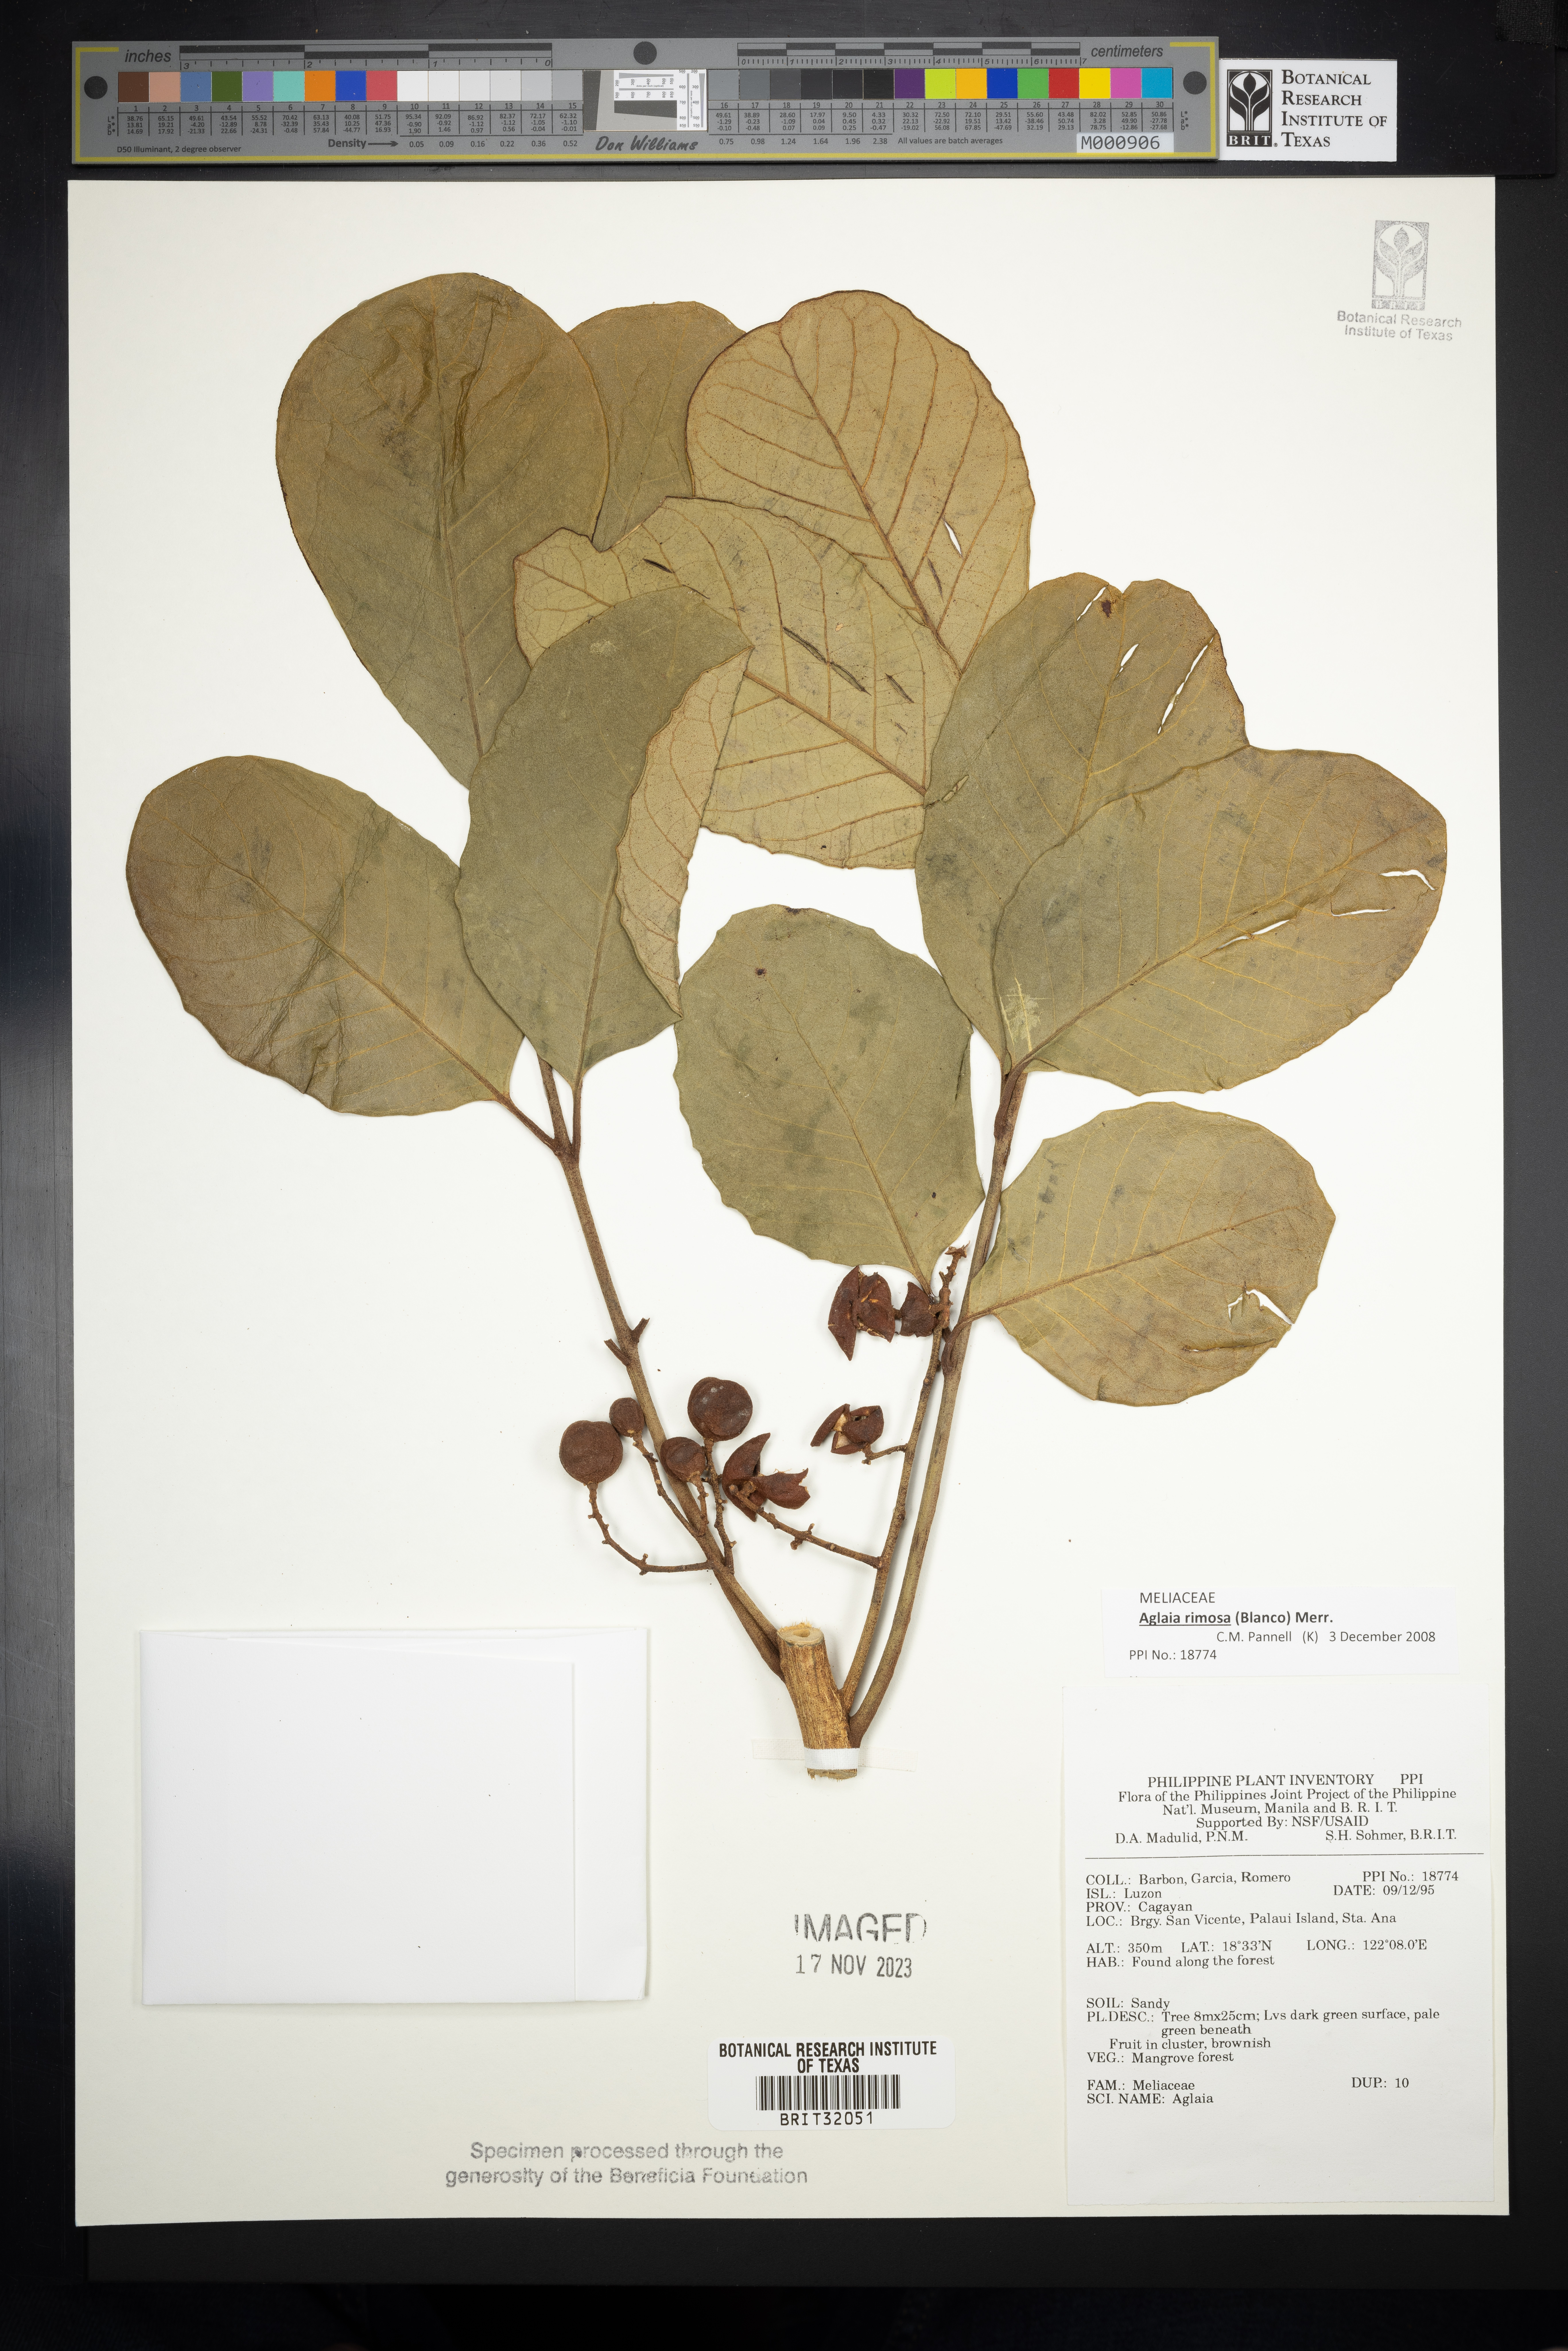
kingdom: Plantae
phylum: Tracheophyta
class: Magnoliopsida
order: Sapindales
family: Meliaceae
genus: Aglaia
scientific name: Aglaia
